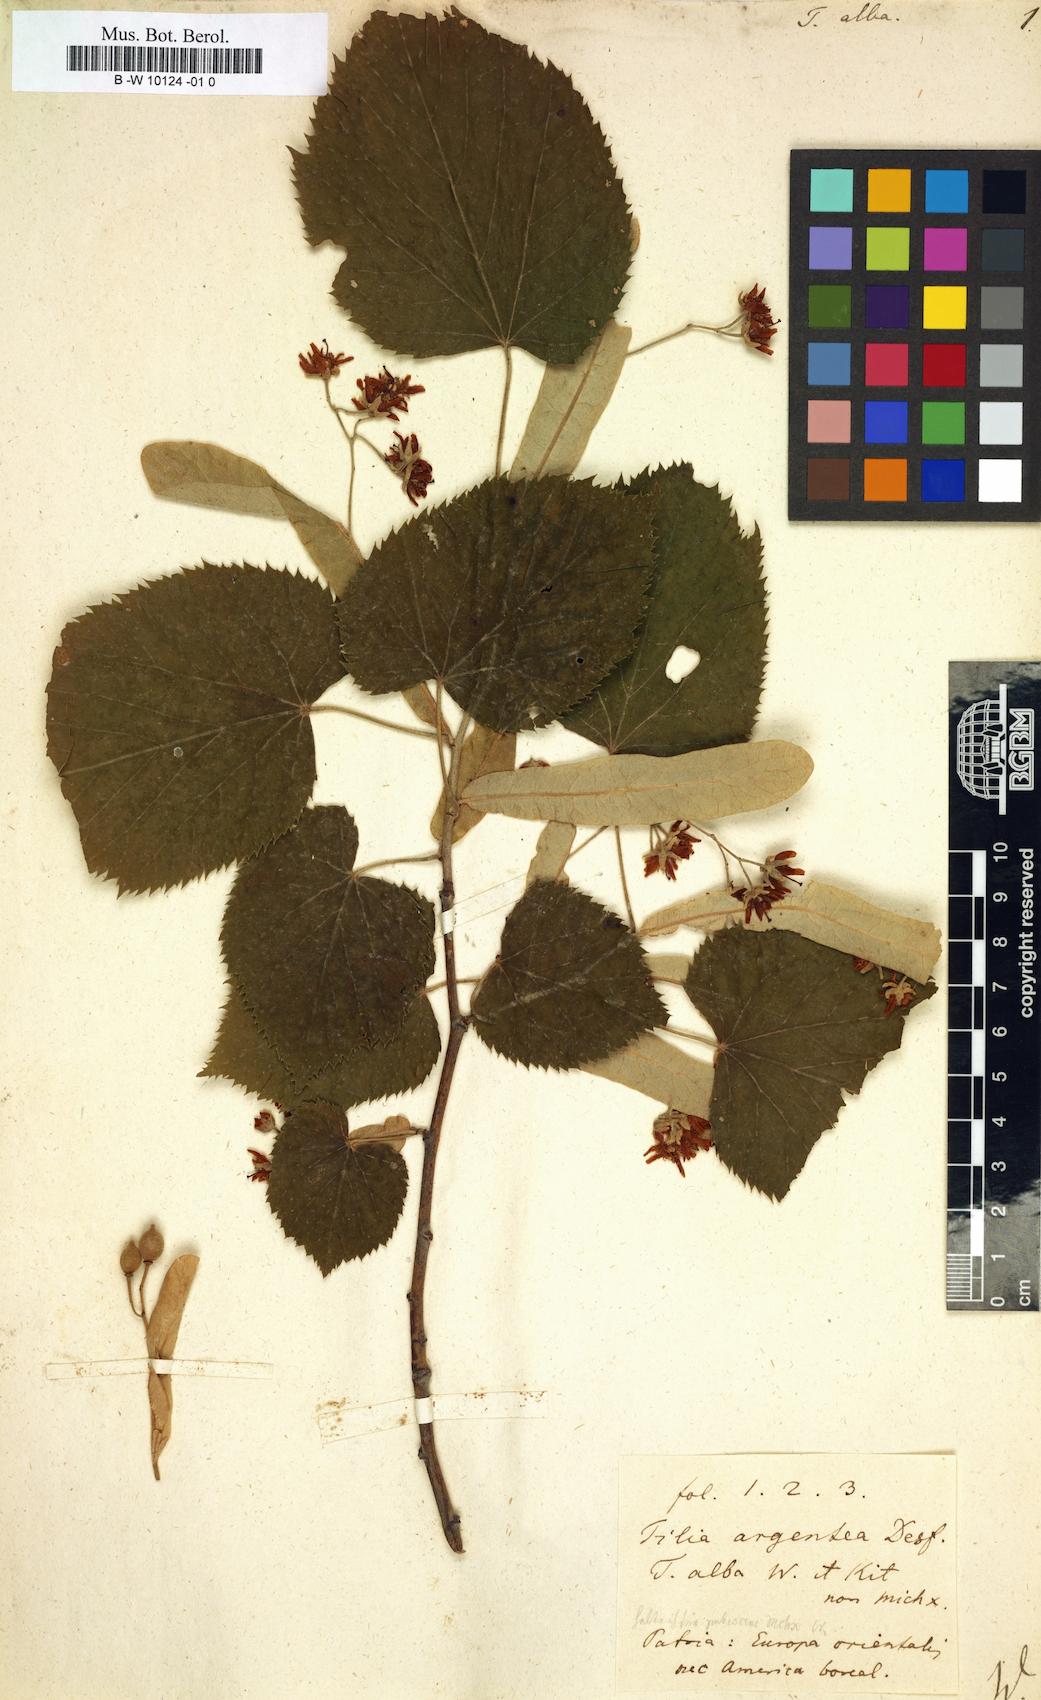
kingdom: Plantae
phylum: Tracheophyta
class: Magnoliopsida
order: Malvales
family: Malvaceae
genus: Tilia
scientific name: Tilia tomentosa
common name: Silver lime
